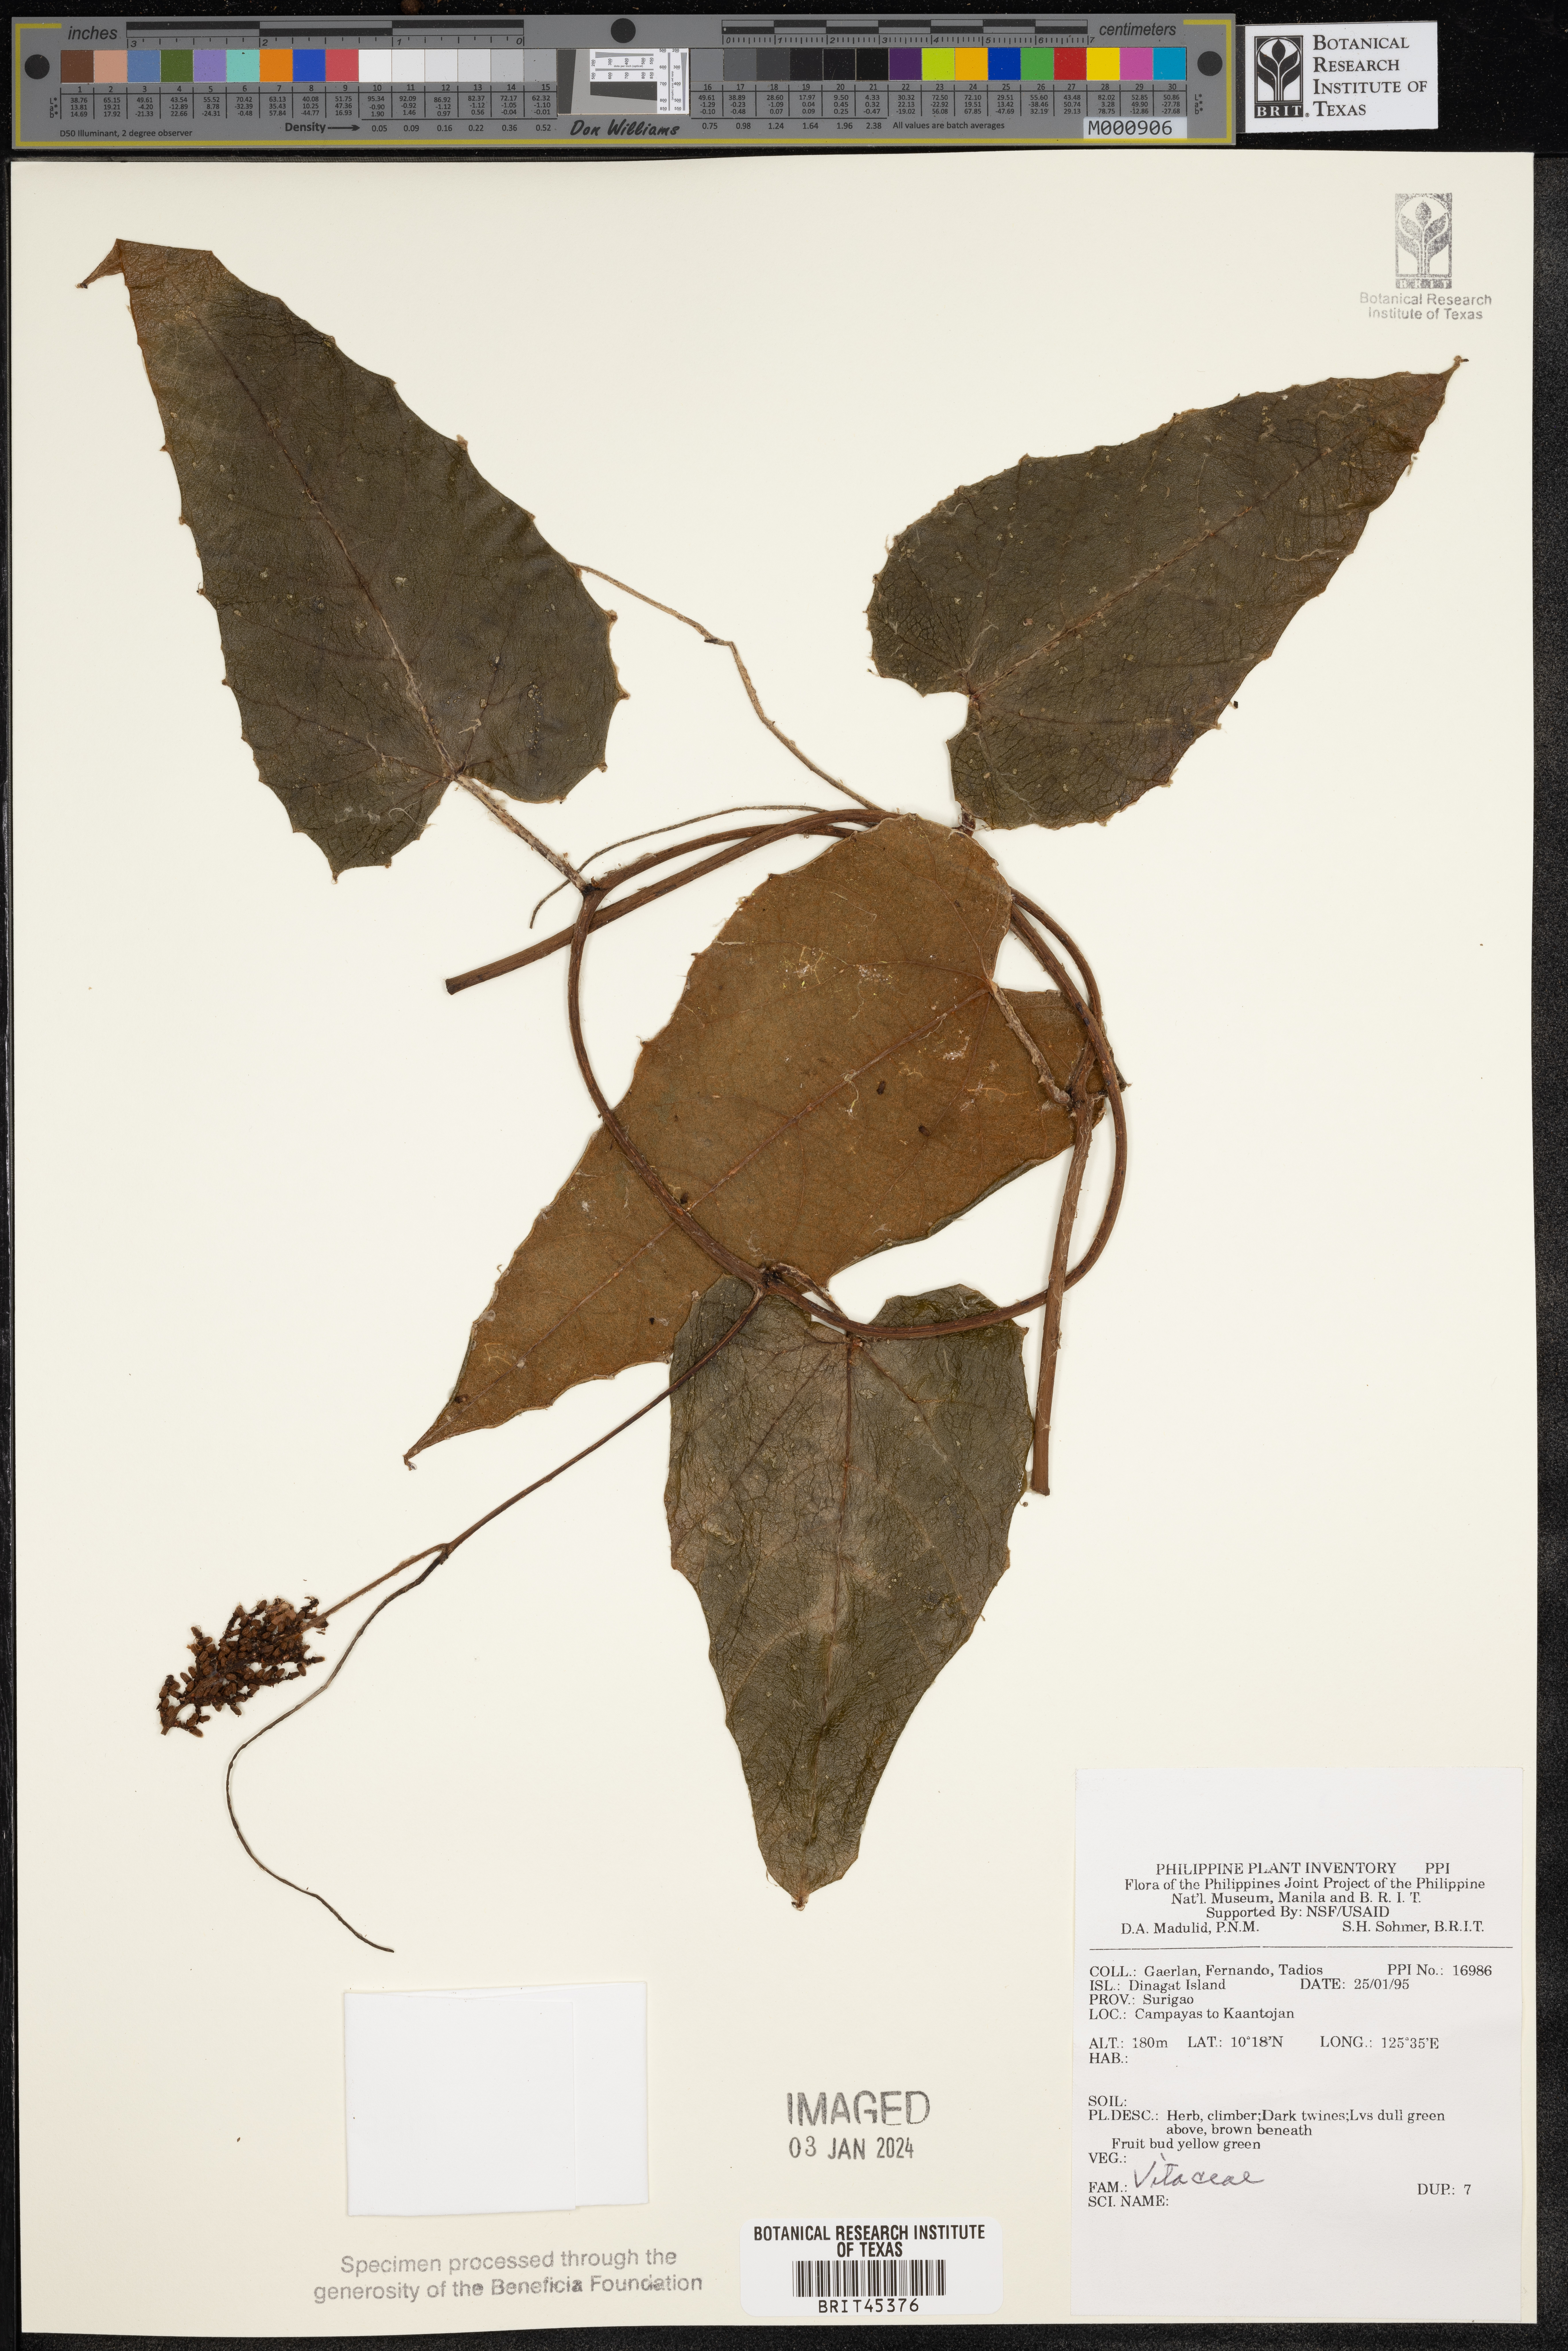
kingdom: Plantae
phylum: Tracheophyta
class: Magnoliopsida
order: Vitales
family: Vitaceae
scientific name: Vitaceae
